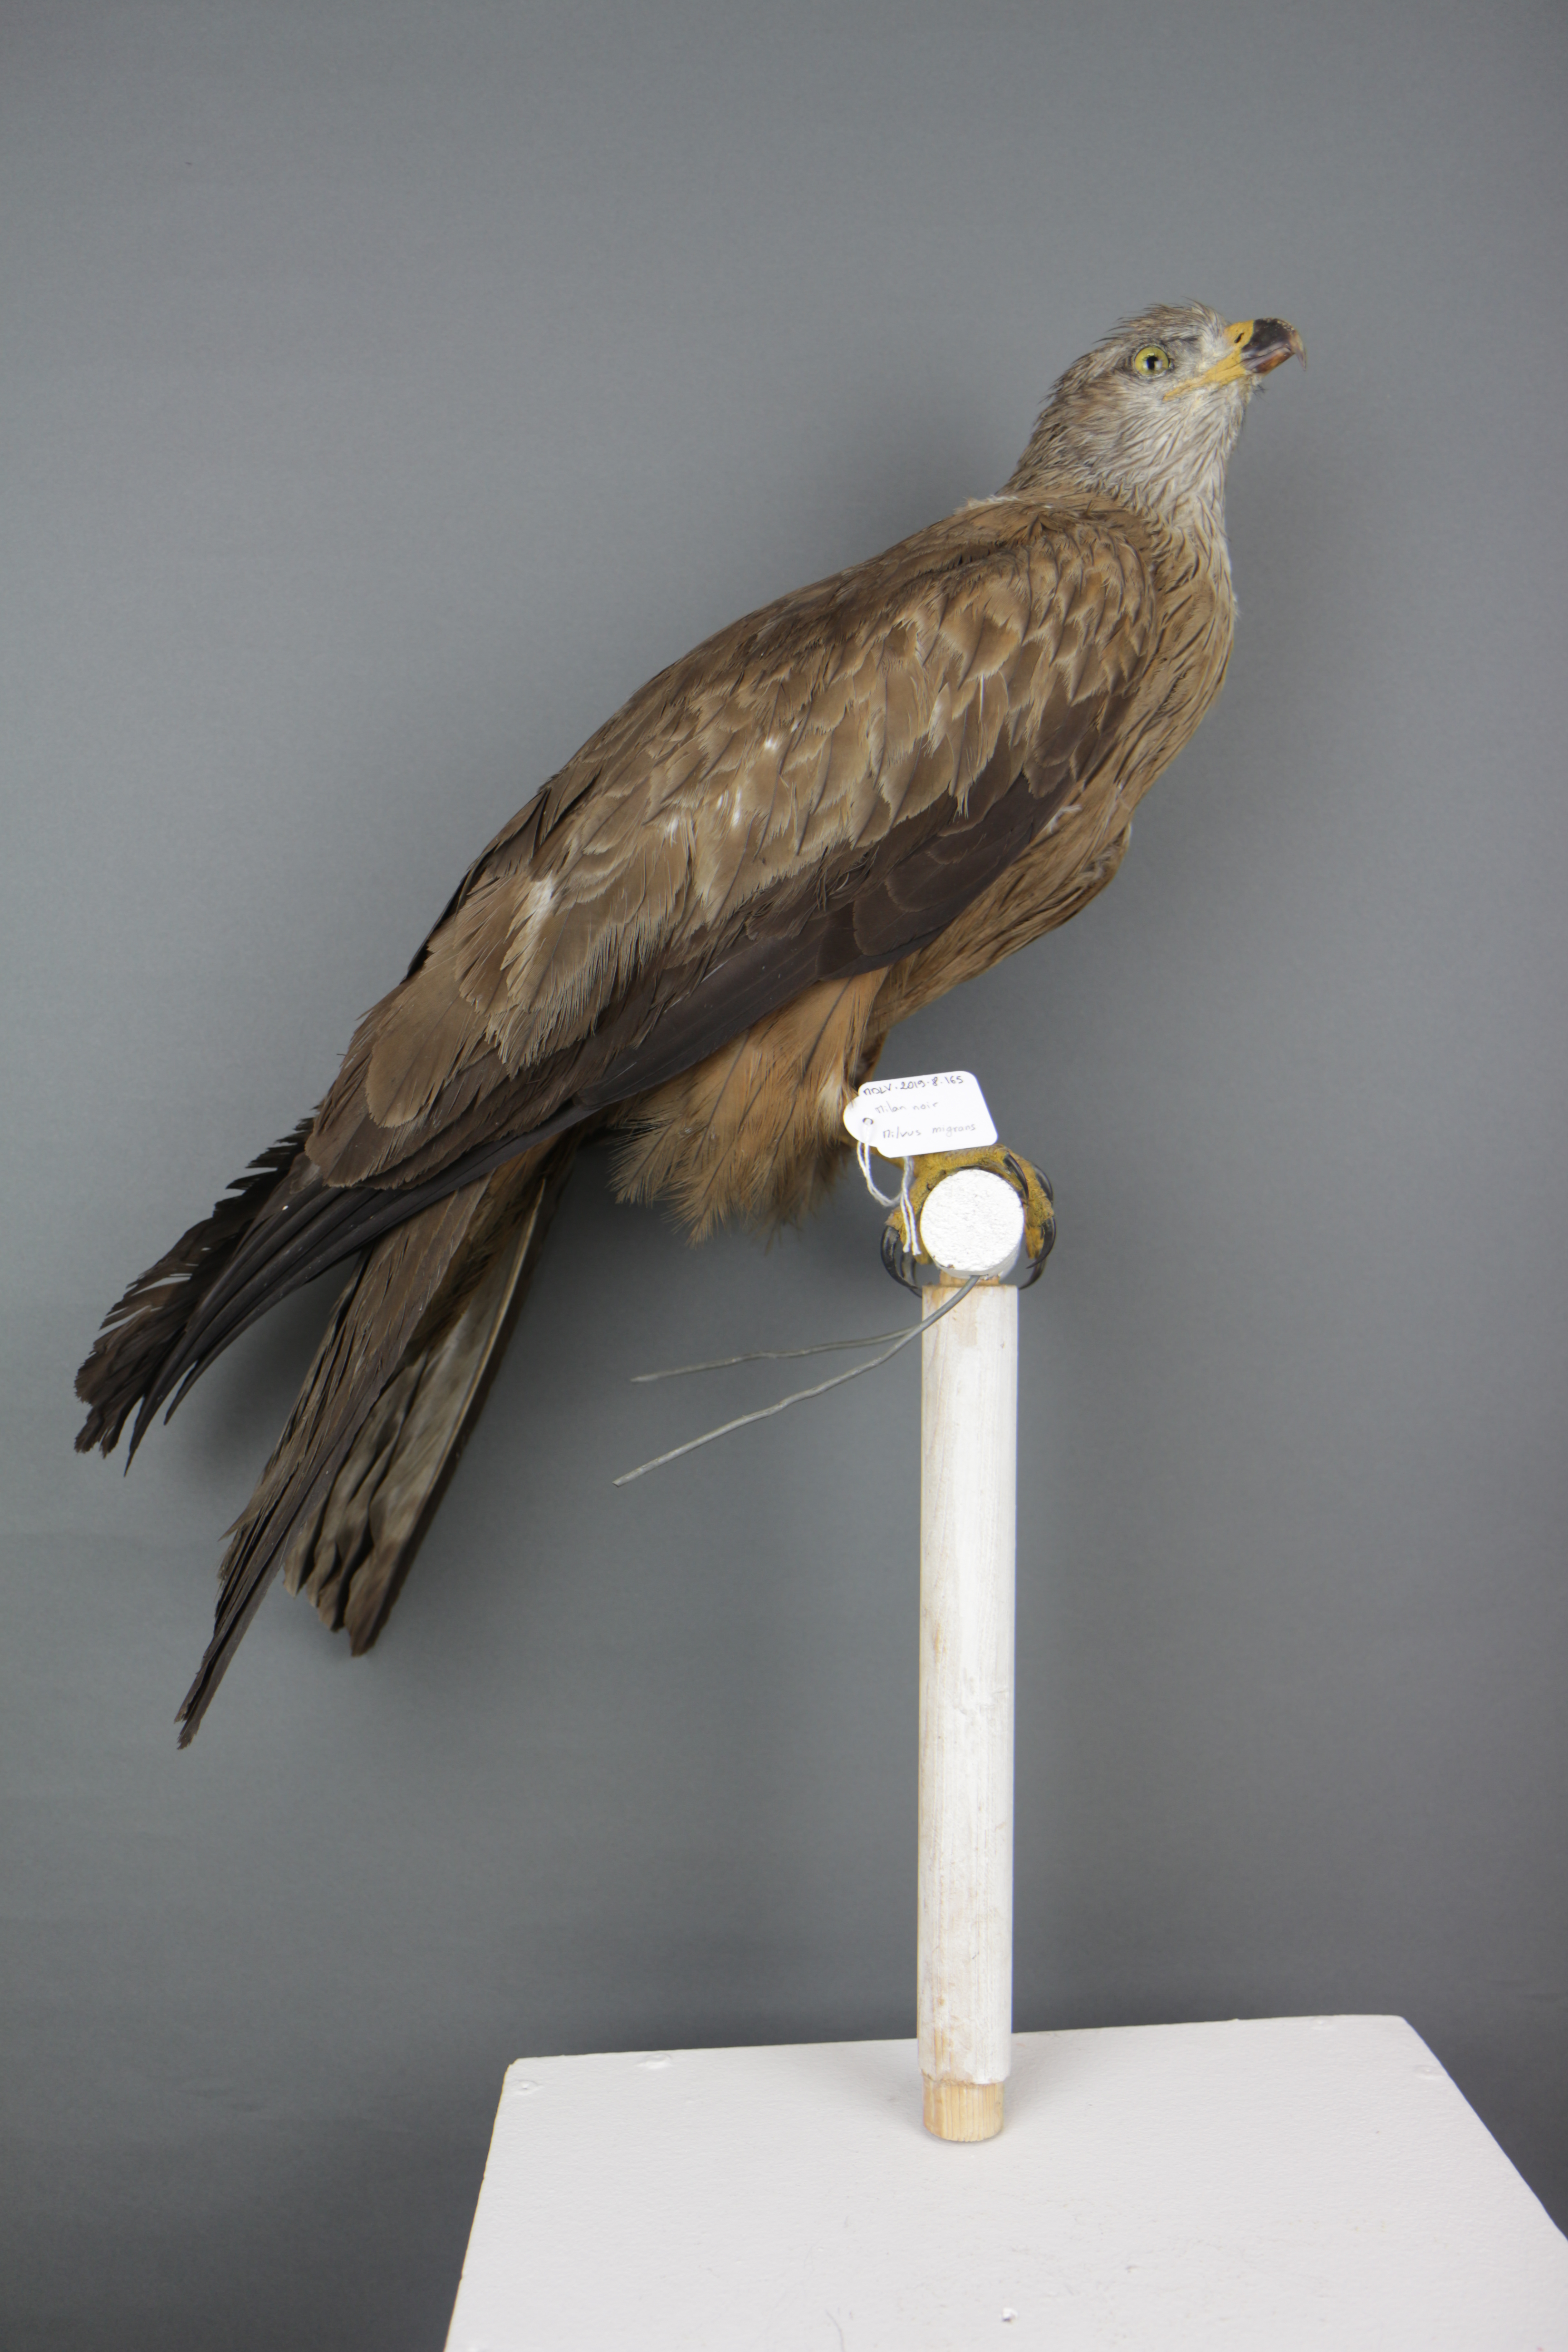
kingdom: Animalia
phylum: Chordata
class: Aves
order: Accipitriformes
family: Accipitridae
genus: Milvus
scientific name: Milvus migrans
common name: Black kite
